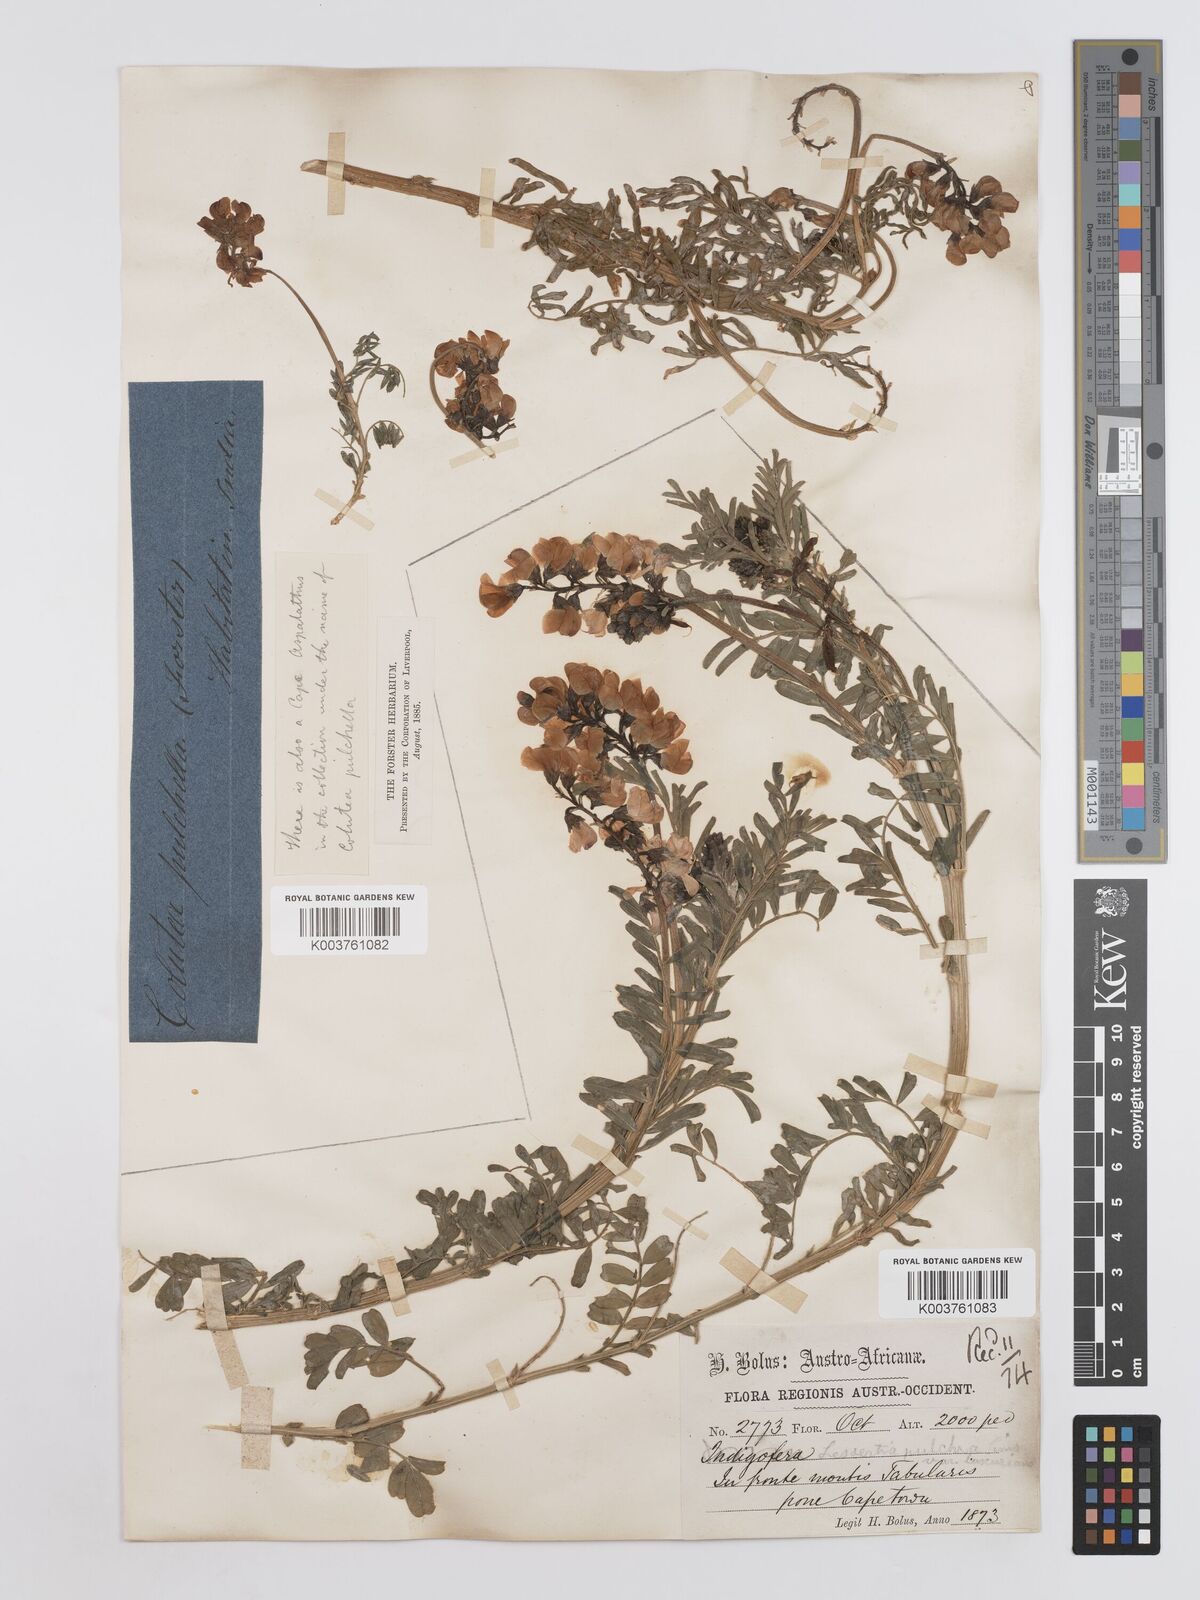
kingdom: Plantae
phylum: Tracheophyta
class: Magnoliopsida
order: Fabales
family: Fabaceae
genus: Lessertia
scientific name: Lessertia capensis
